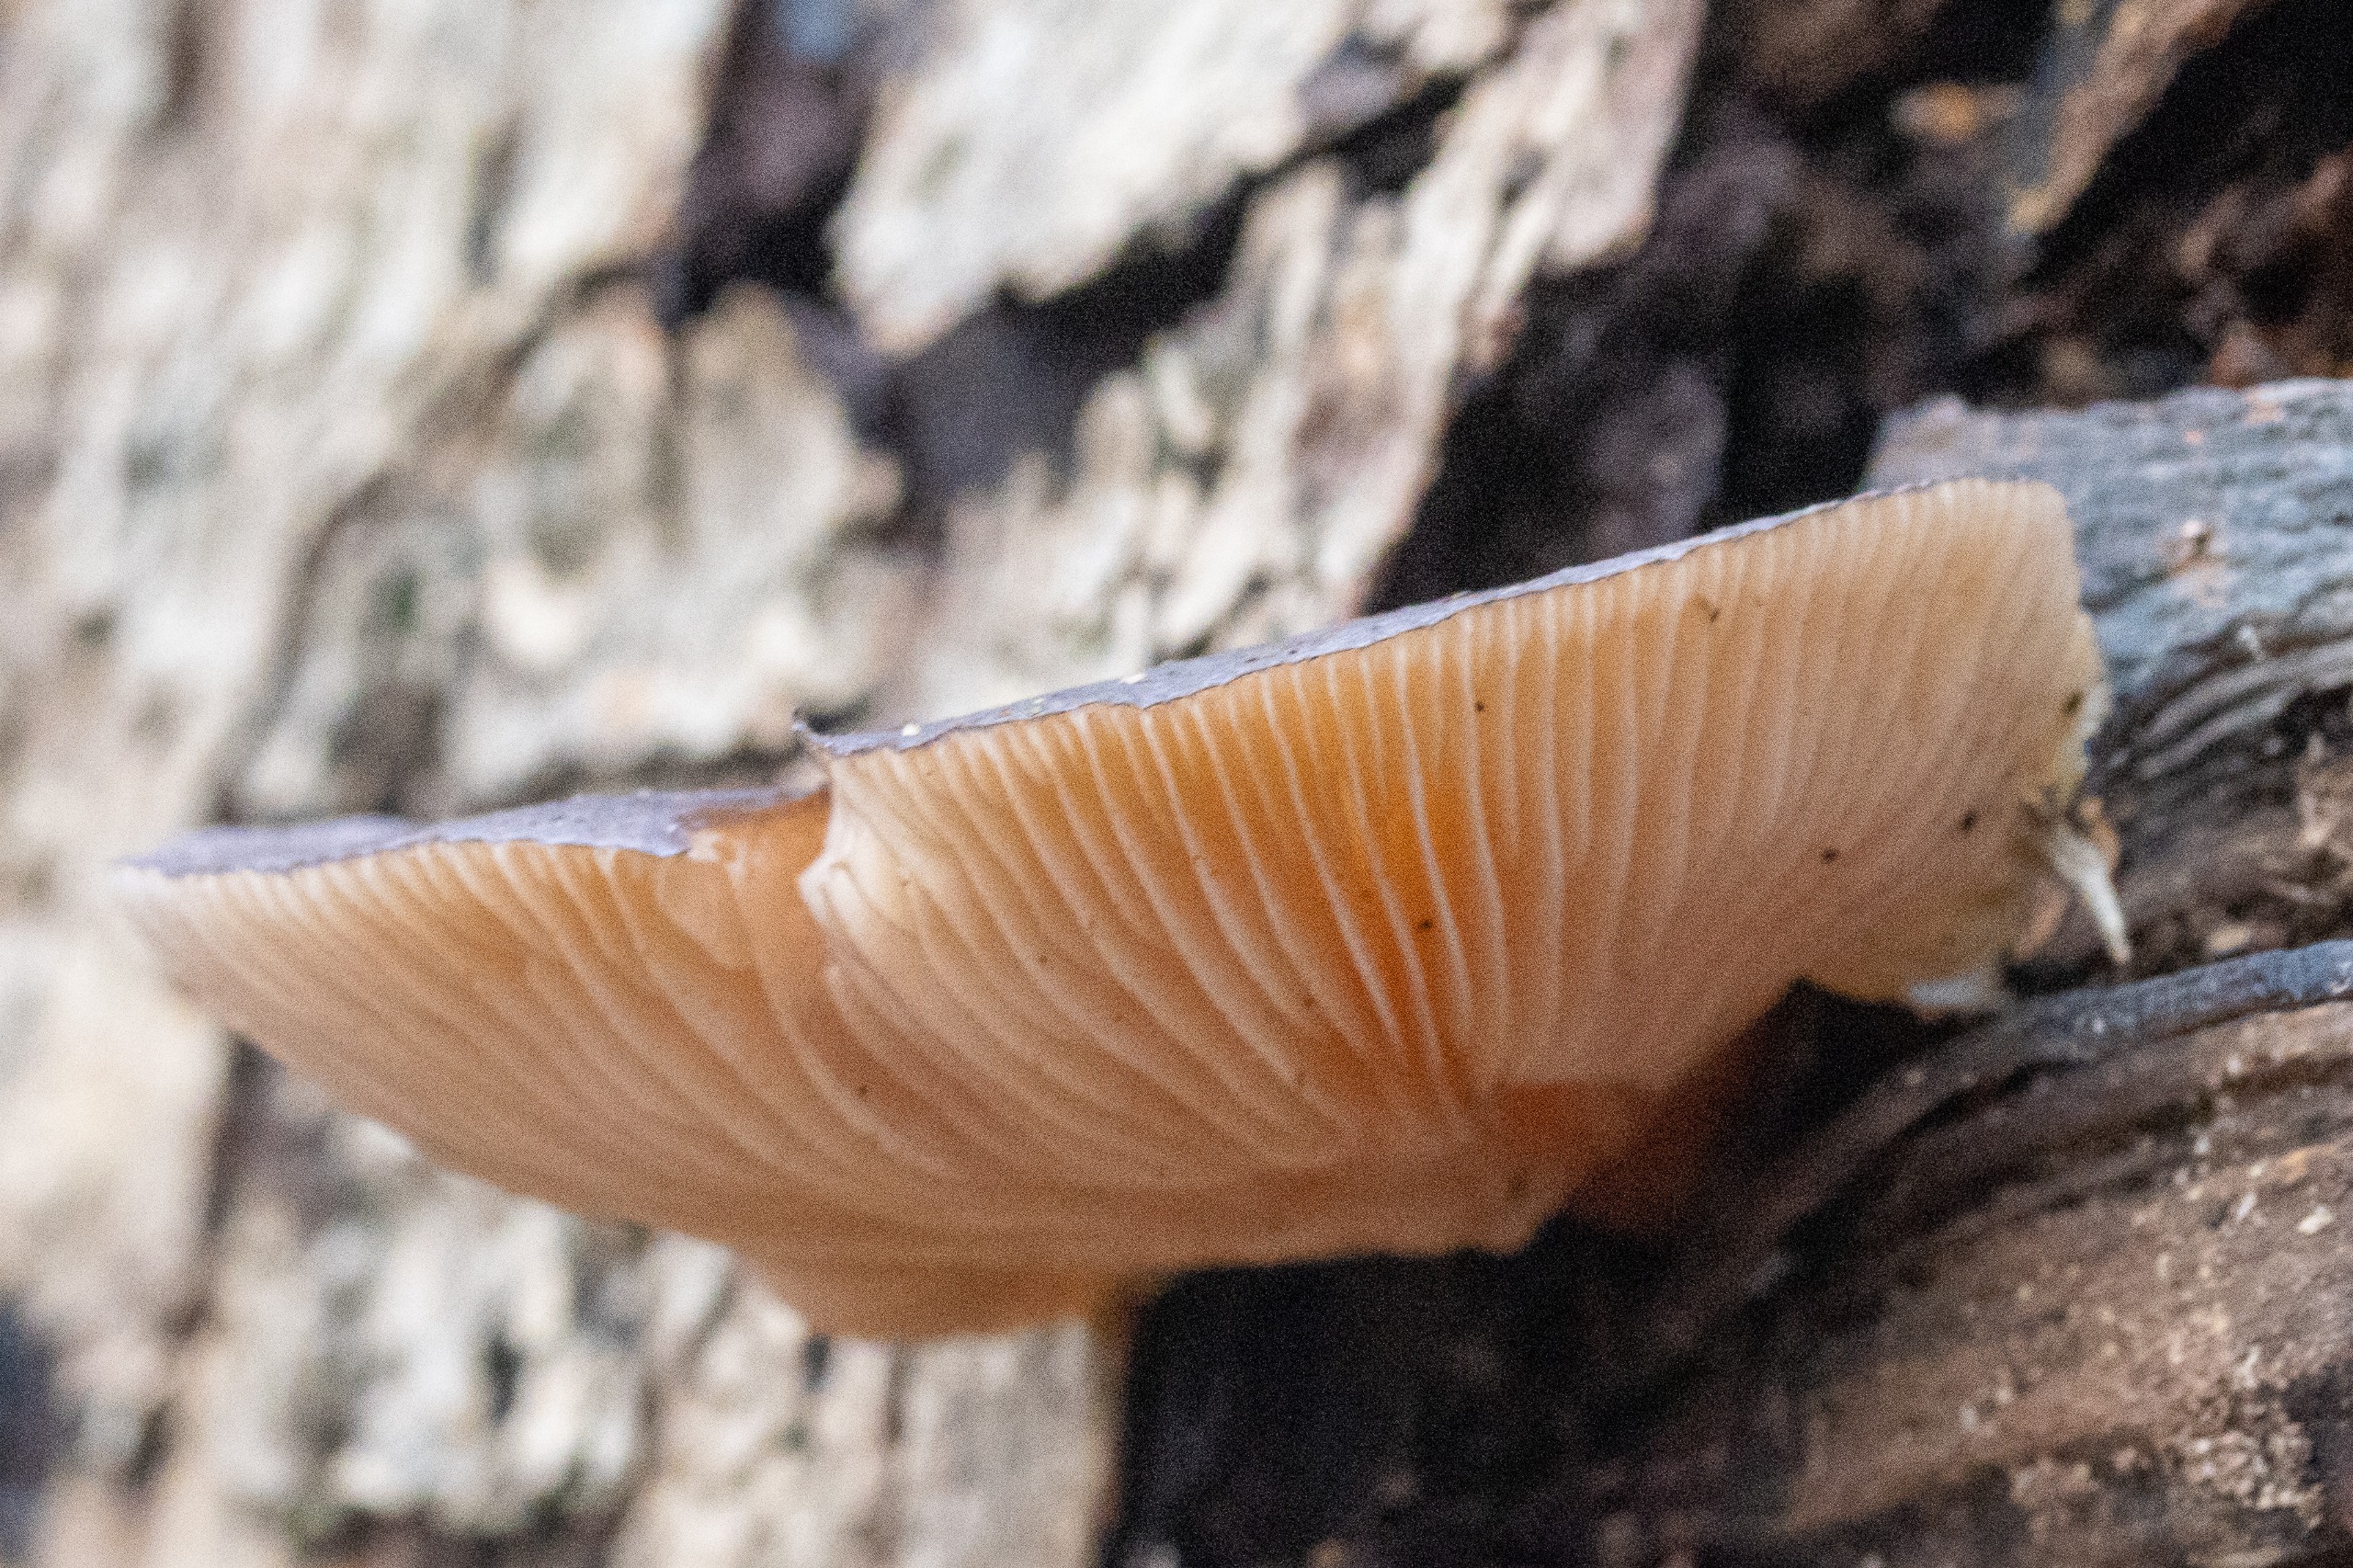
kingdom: Fungi
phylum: Basidiomycota
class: Agaricomycetes
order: Agaricales
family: Sarcomyxaceae
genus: Sarcomyxa
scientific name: Sarcomyxa serotina
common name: Gummihat
